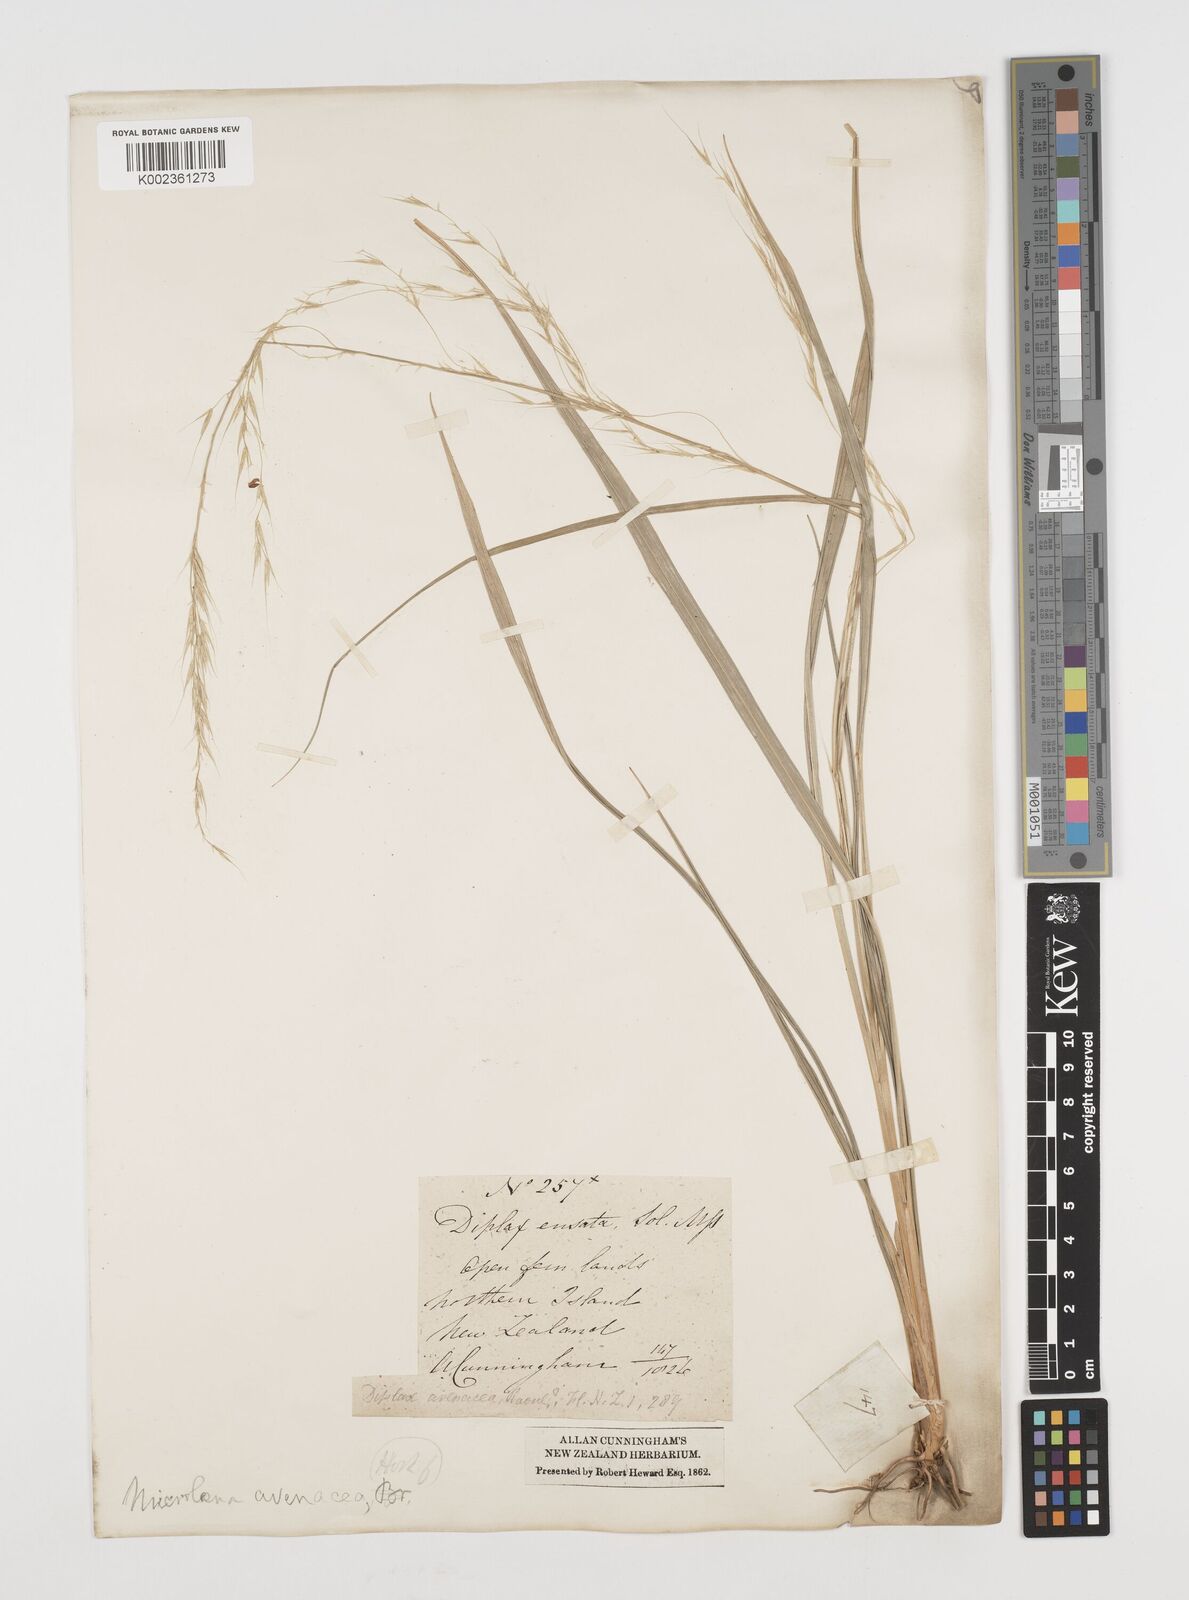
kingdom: Plantae
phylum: Tracheophyta
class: Liliopsida
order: Poales
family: Poaceae
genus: Ehrharta
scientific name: Ehrharta diplax
